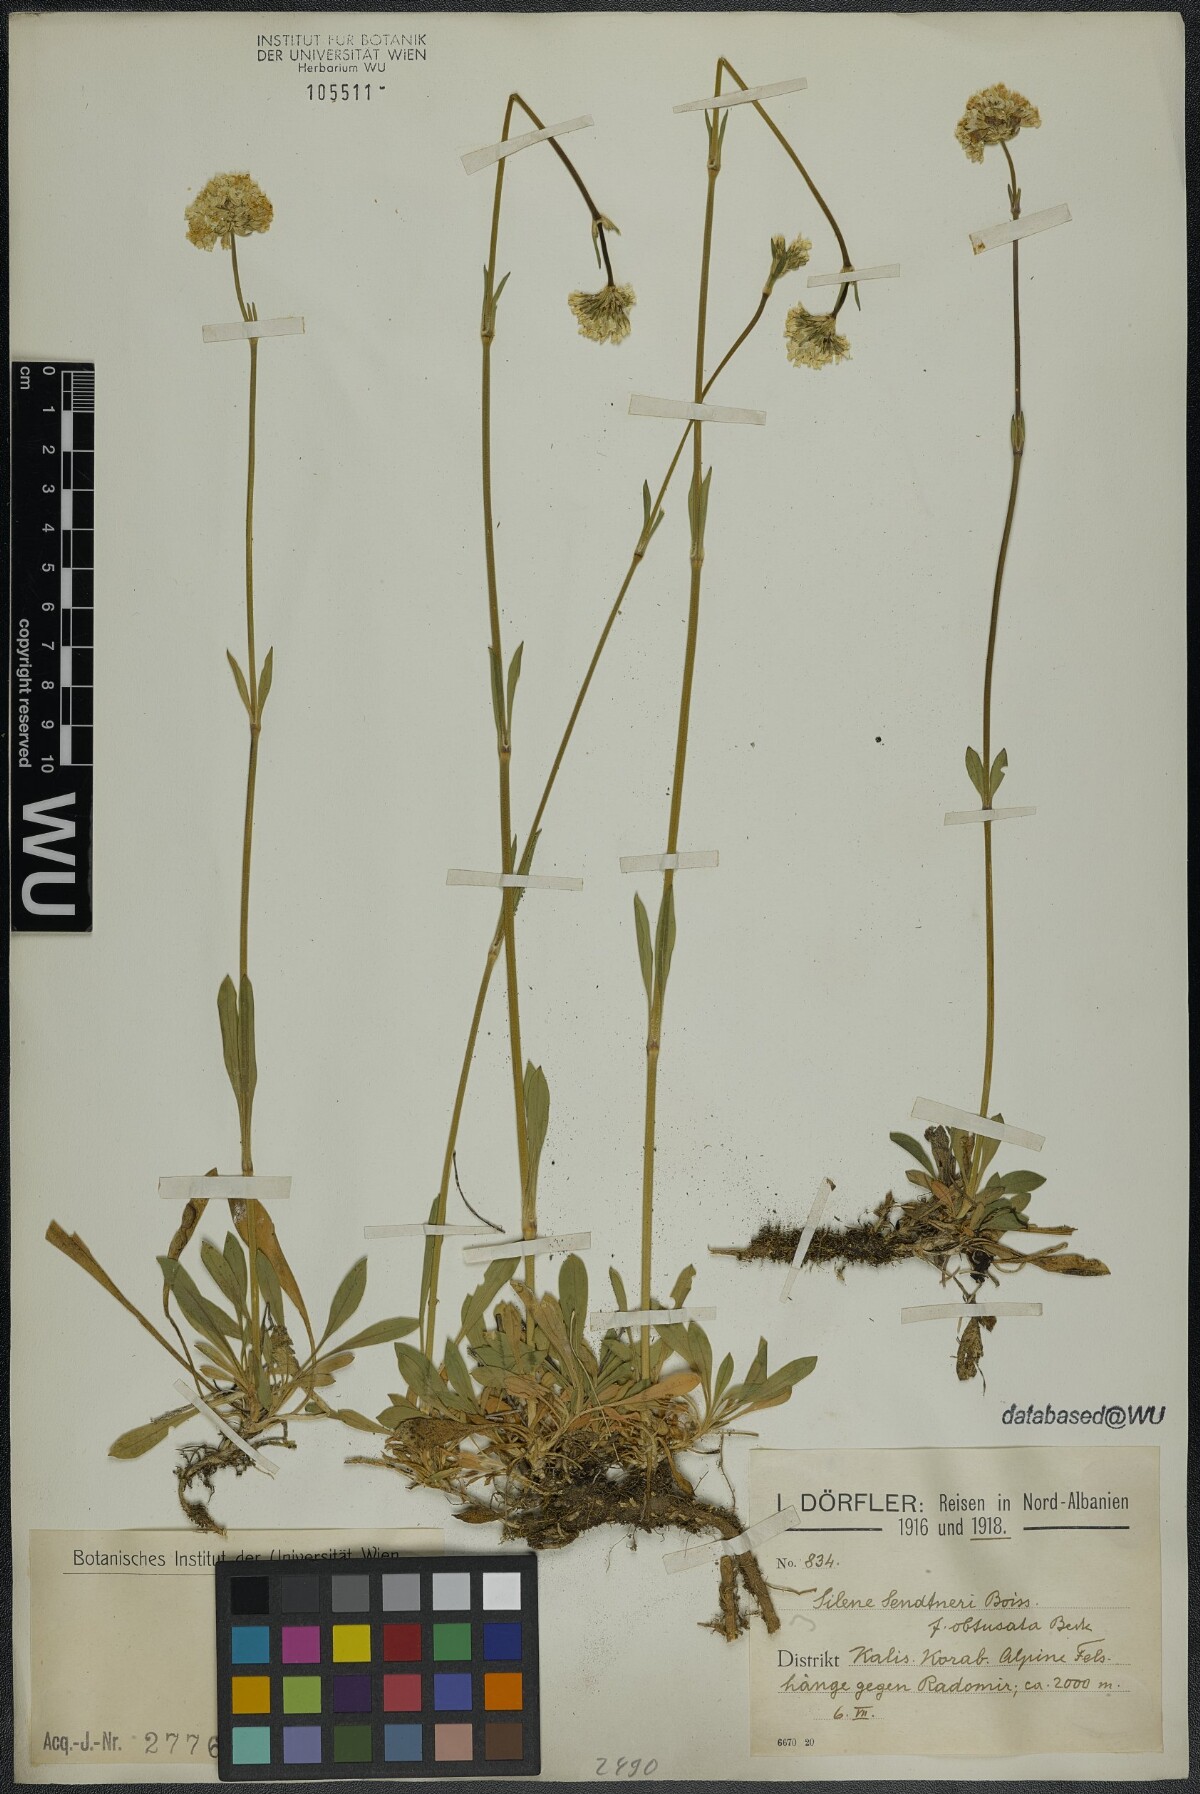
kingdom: Plantae
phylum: Tracheophyta
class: Magnoliopsida
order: Caryophyllales
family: Caryophyllaceae
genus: Silene
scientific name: Silene sendtneri
